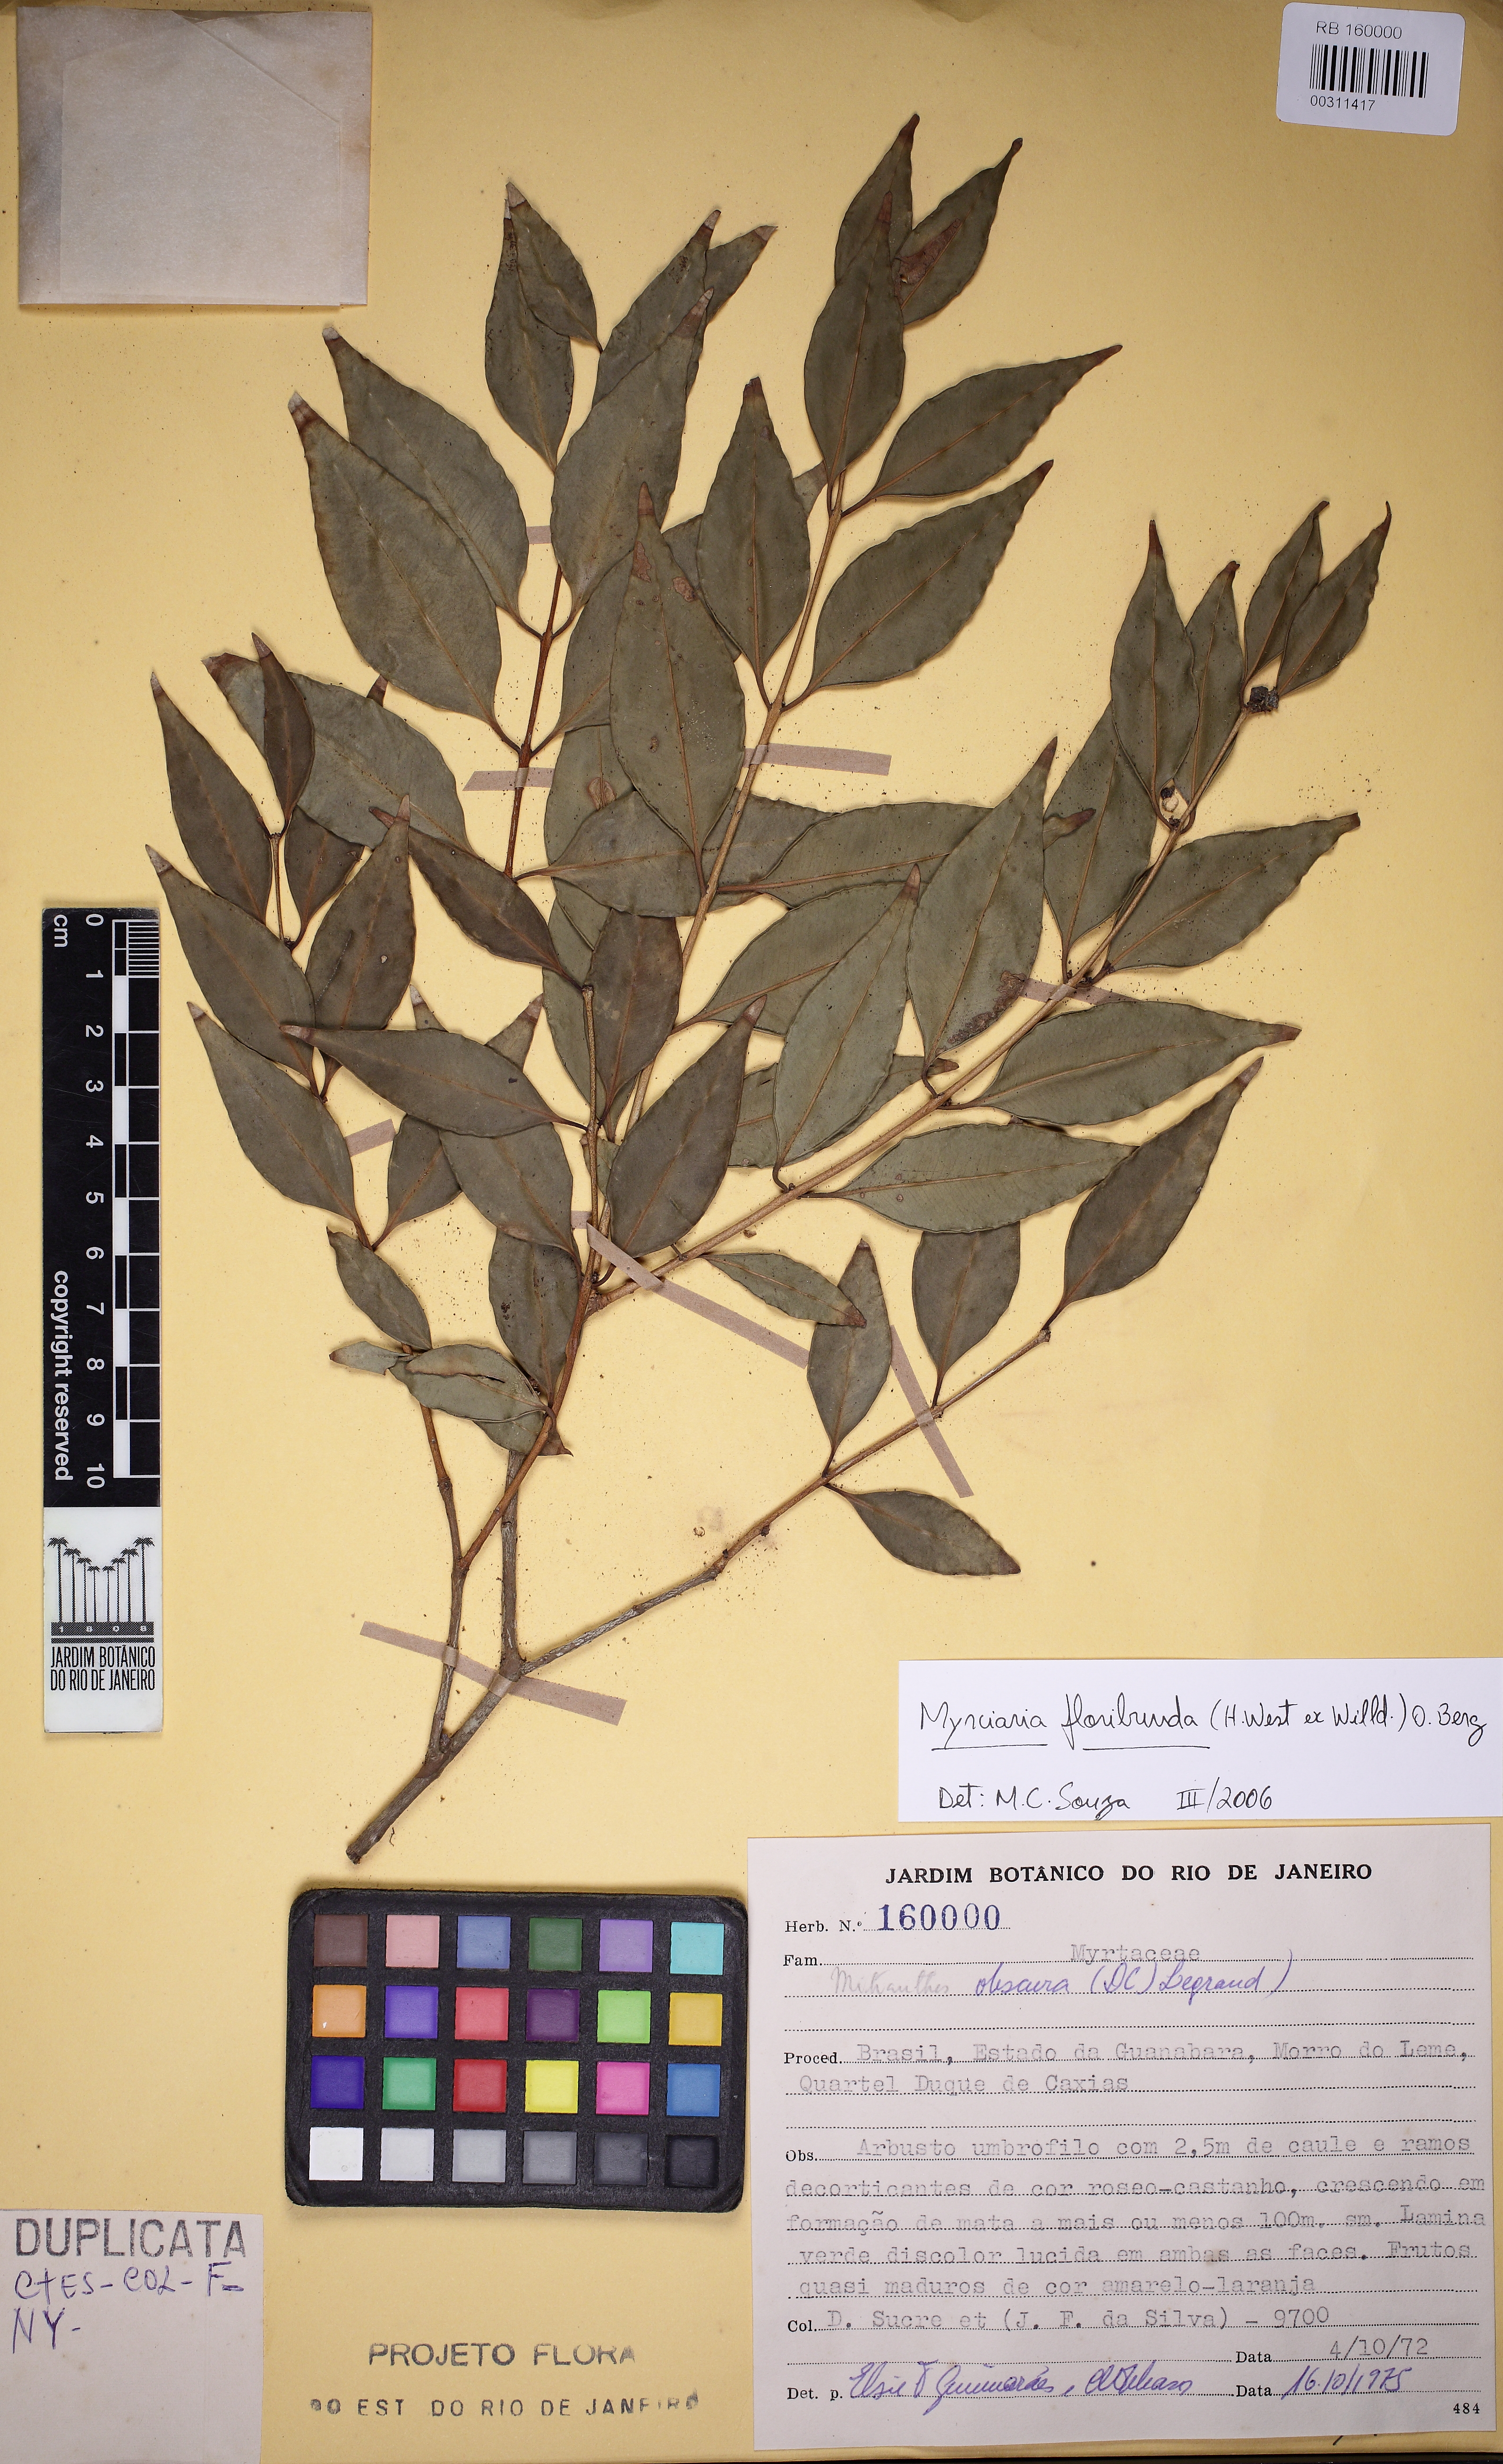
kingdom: Plantae
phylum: Tracheophyta
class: Magnoliopsida
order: Myrtales
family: Myrtaceae
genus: Myrciaria
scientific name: Myrciaria floribunda
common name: Guavaberry
